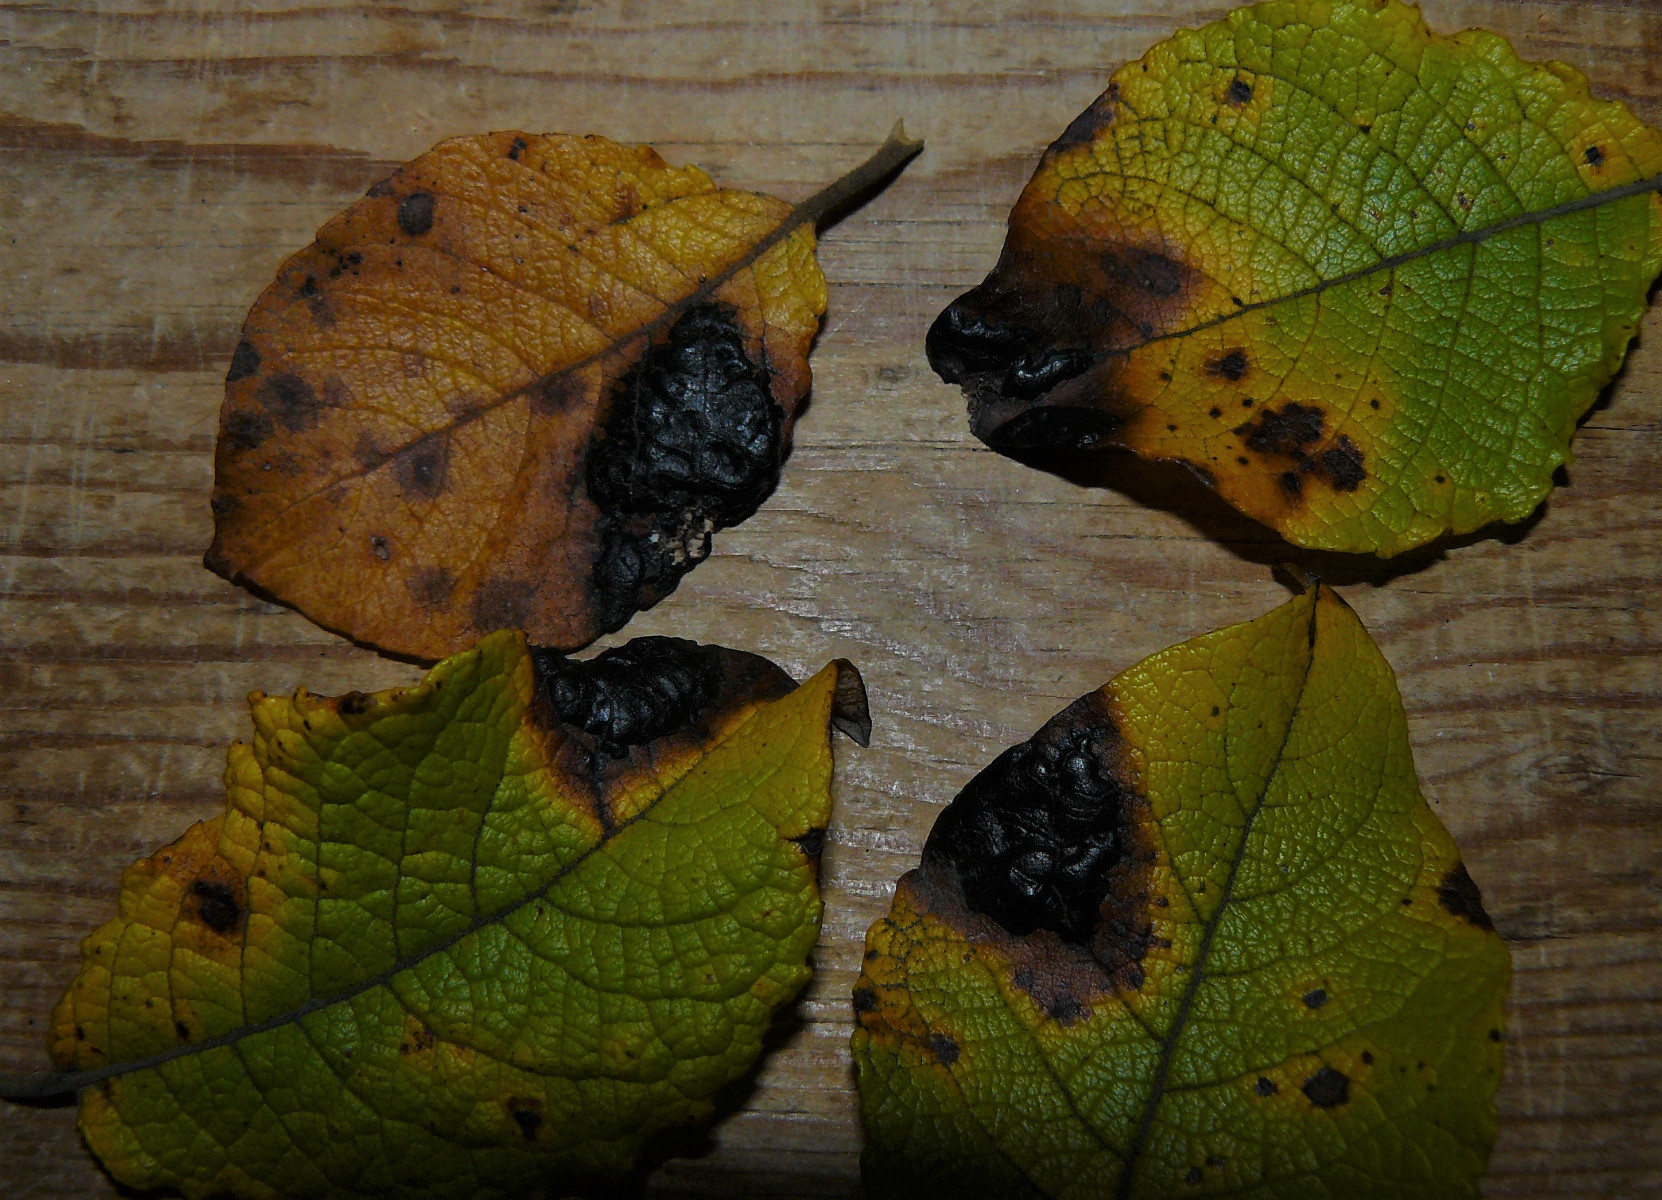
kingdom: Fungi
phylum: Ascomycota
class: Leotiomycetes
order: Rhytismatales
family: Rhytismataceae
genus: Rhytisma
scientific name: Rhytisma salicinum
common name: pile-rynkeplet
